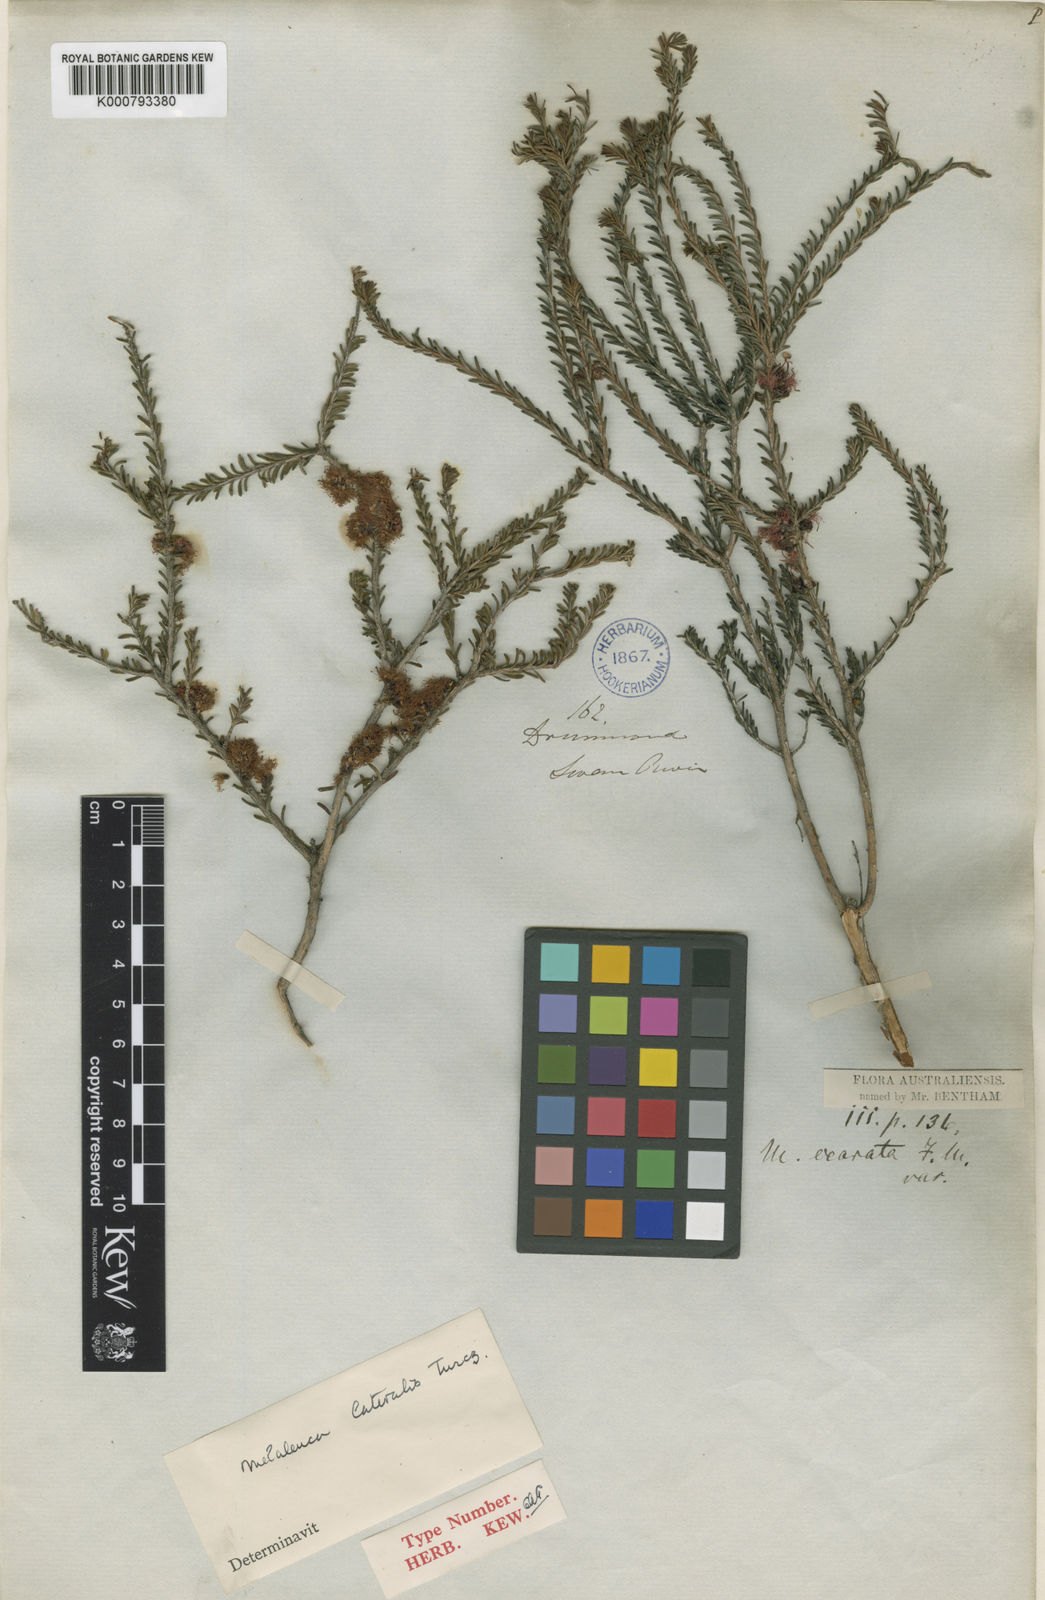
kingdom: Plantae
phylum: Tracheophyta
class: Magnoliopsida
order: Myrtales
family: Myrtaceae
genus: Melaleuca
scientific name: Melaleuca lateralis
